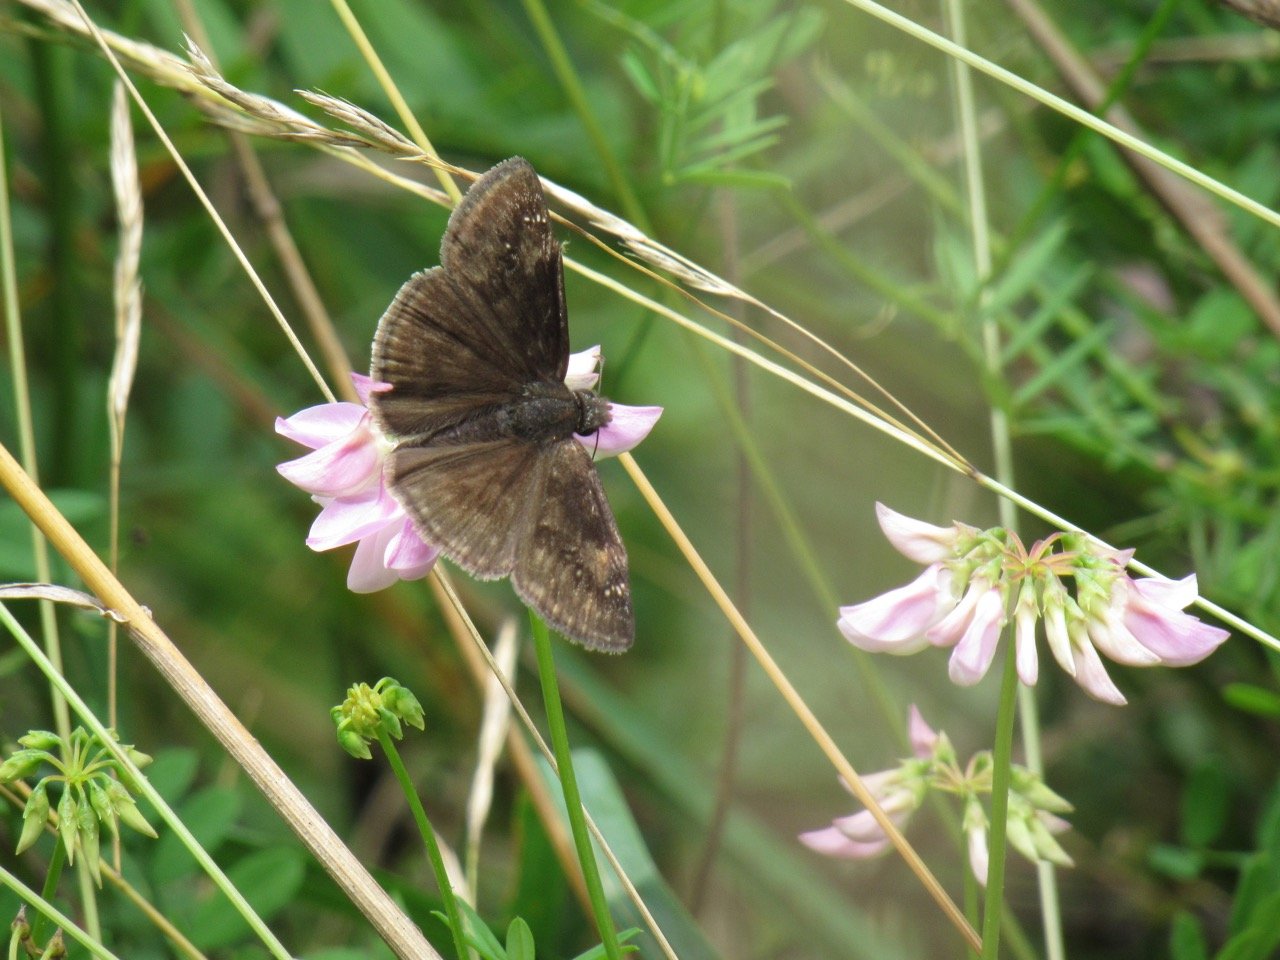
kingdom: Animalia
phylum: Arthropoda
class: Insecta
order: Lepidoptera
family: Hesperiidae
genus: Gesta
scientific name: Gesta
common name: Wild Indigo Duskywing
